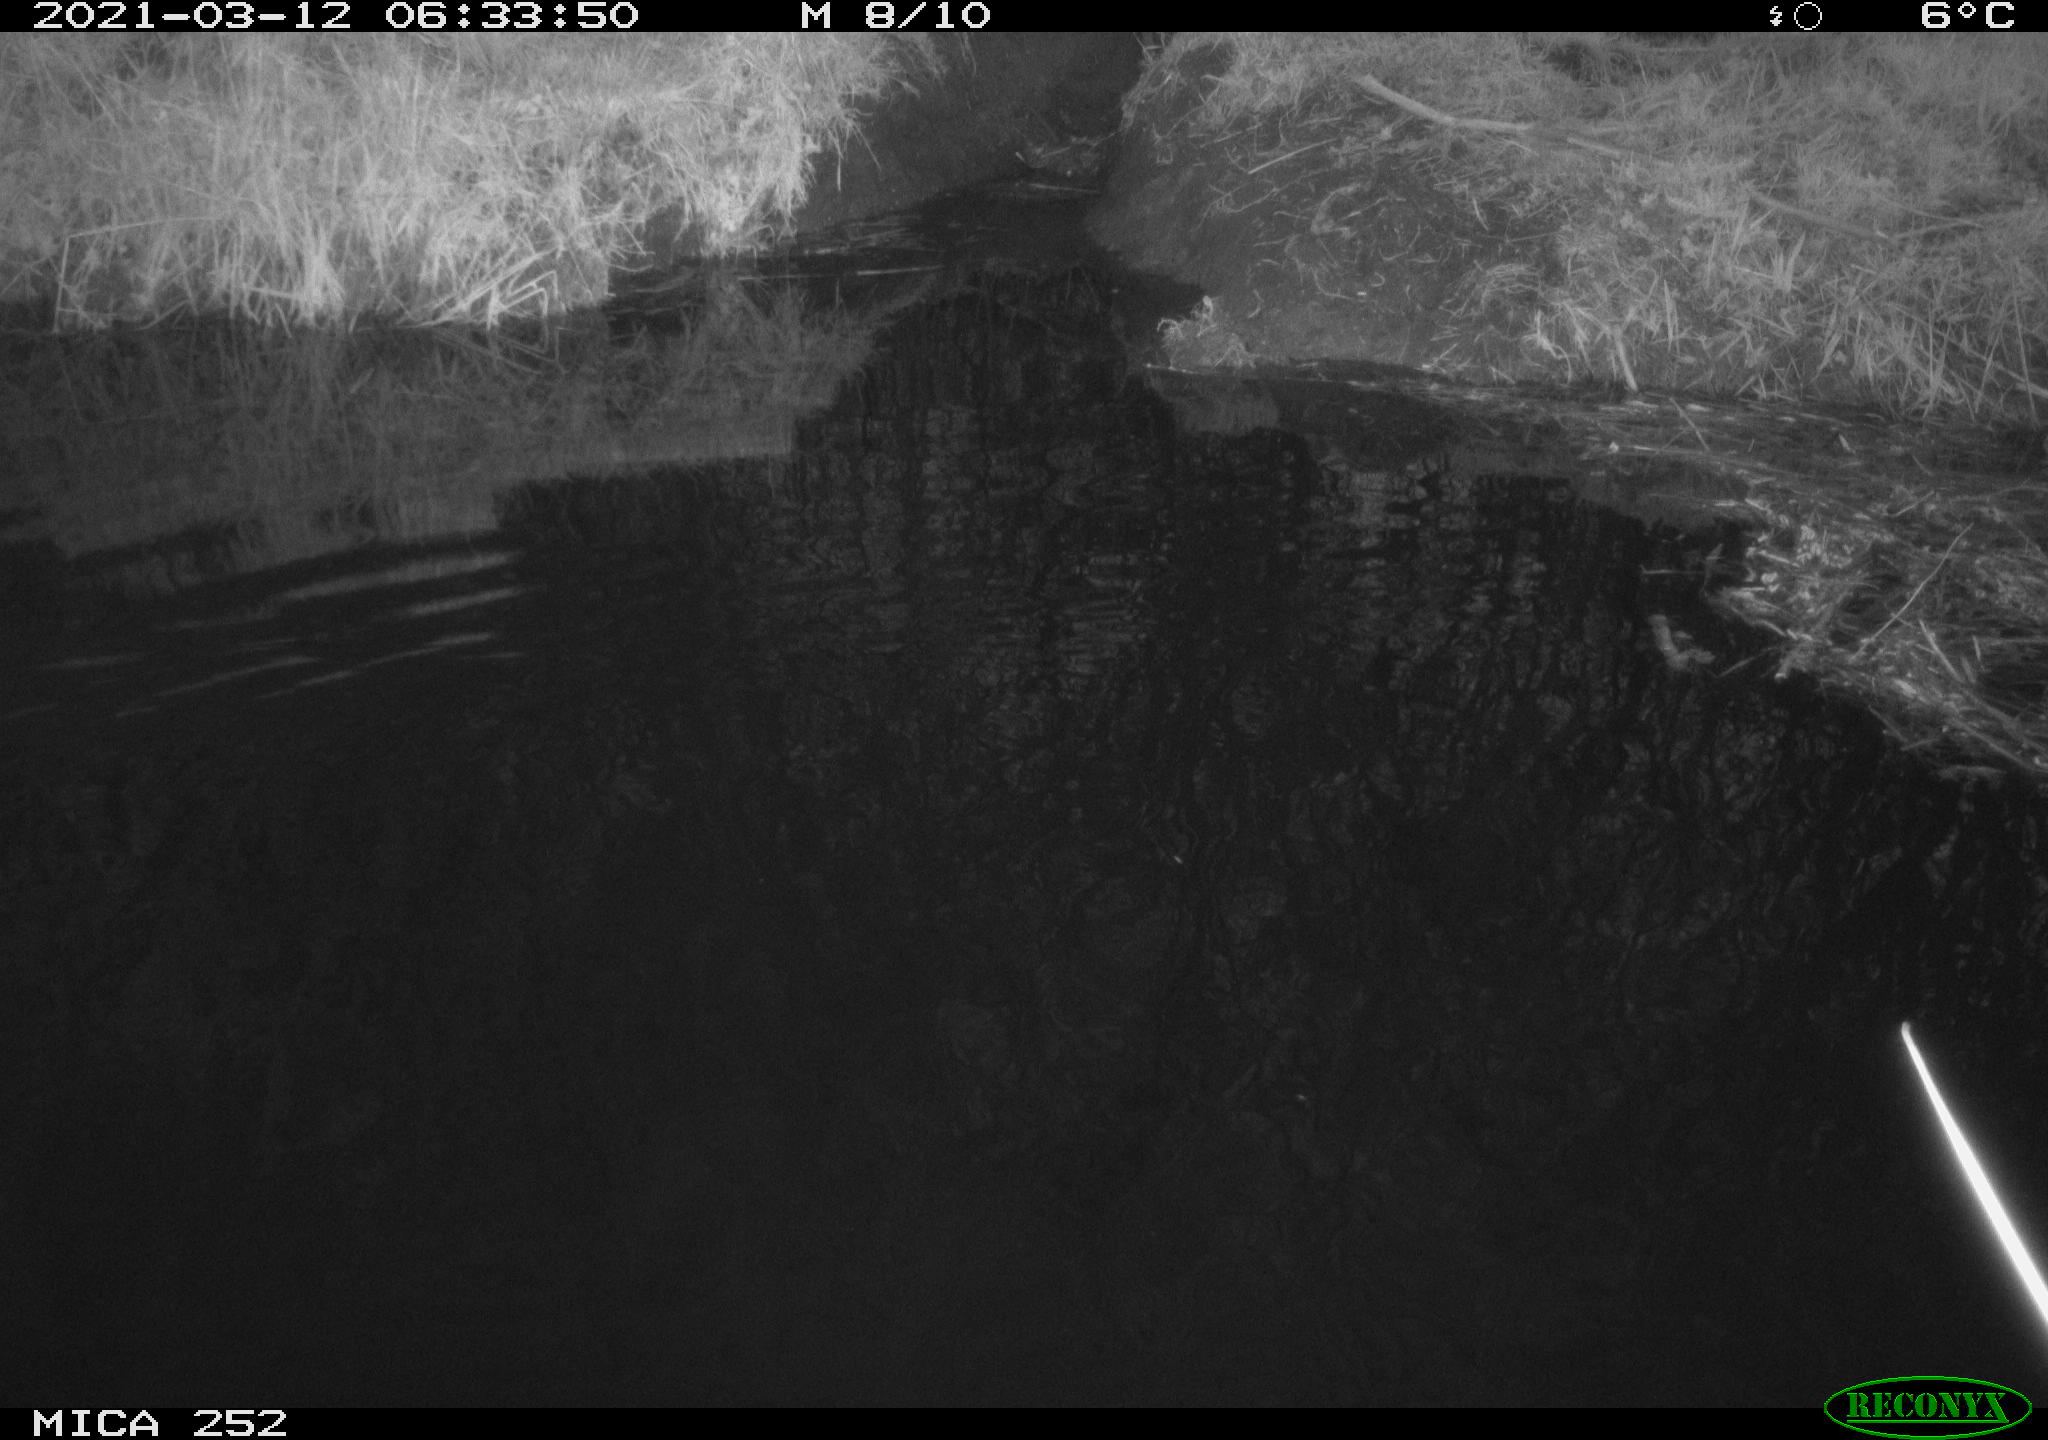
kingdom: Animalia
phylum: Chordata
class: Aves
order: Anseriformes
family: Anatidae
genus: Anas
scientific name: Anas platyrhynchos
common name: Mallard
